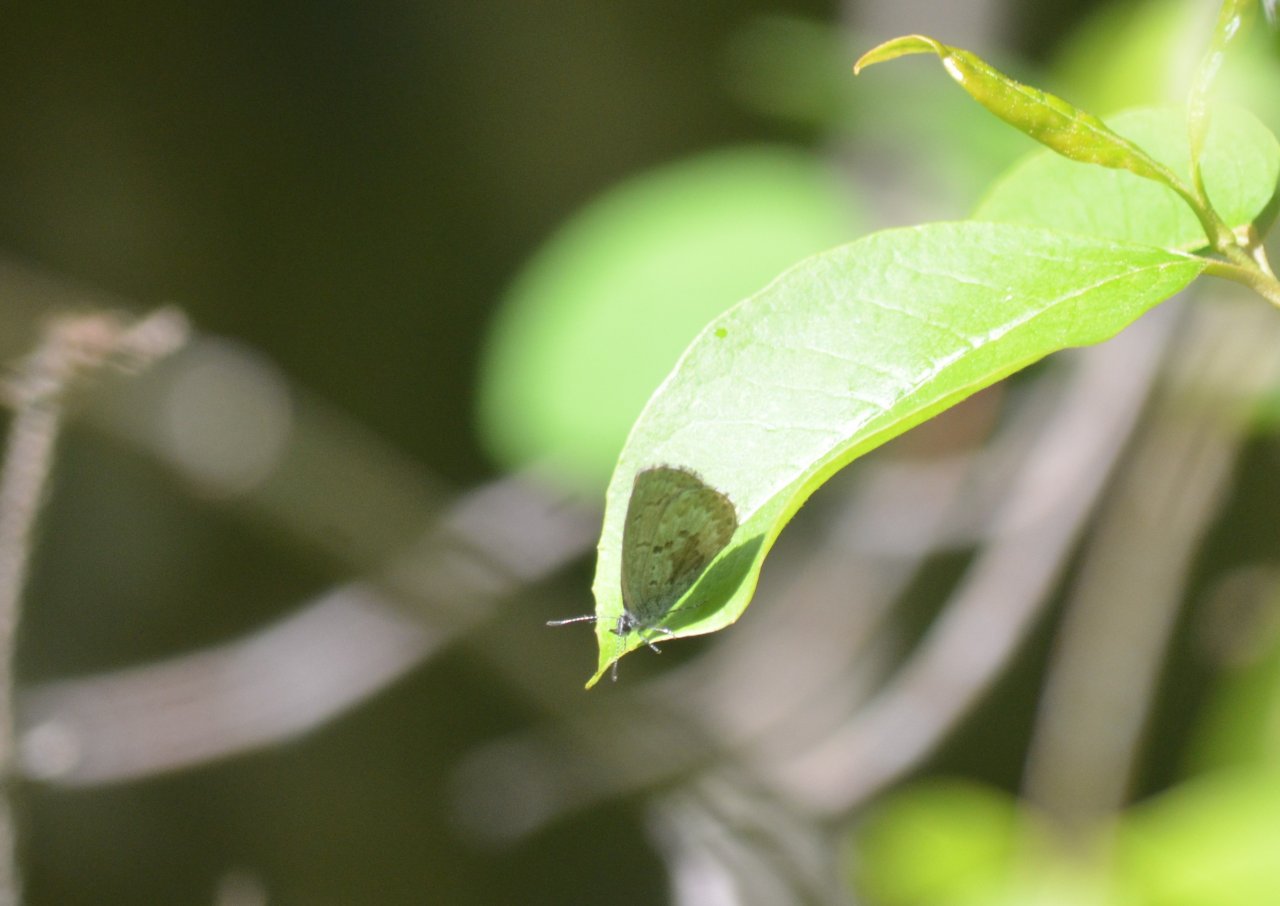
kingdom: Animalia
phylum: Arthropoda
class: Insecta
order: Lepidoptera
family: Lycaenidae
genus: Celastrina
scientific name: Celastrina lucia
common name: Northern Spring Azure
